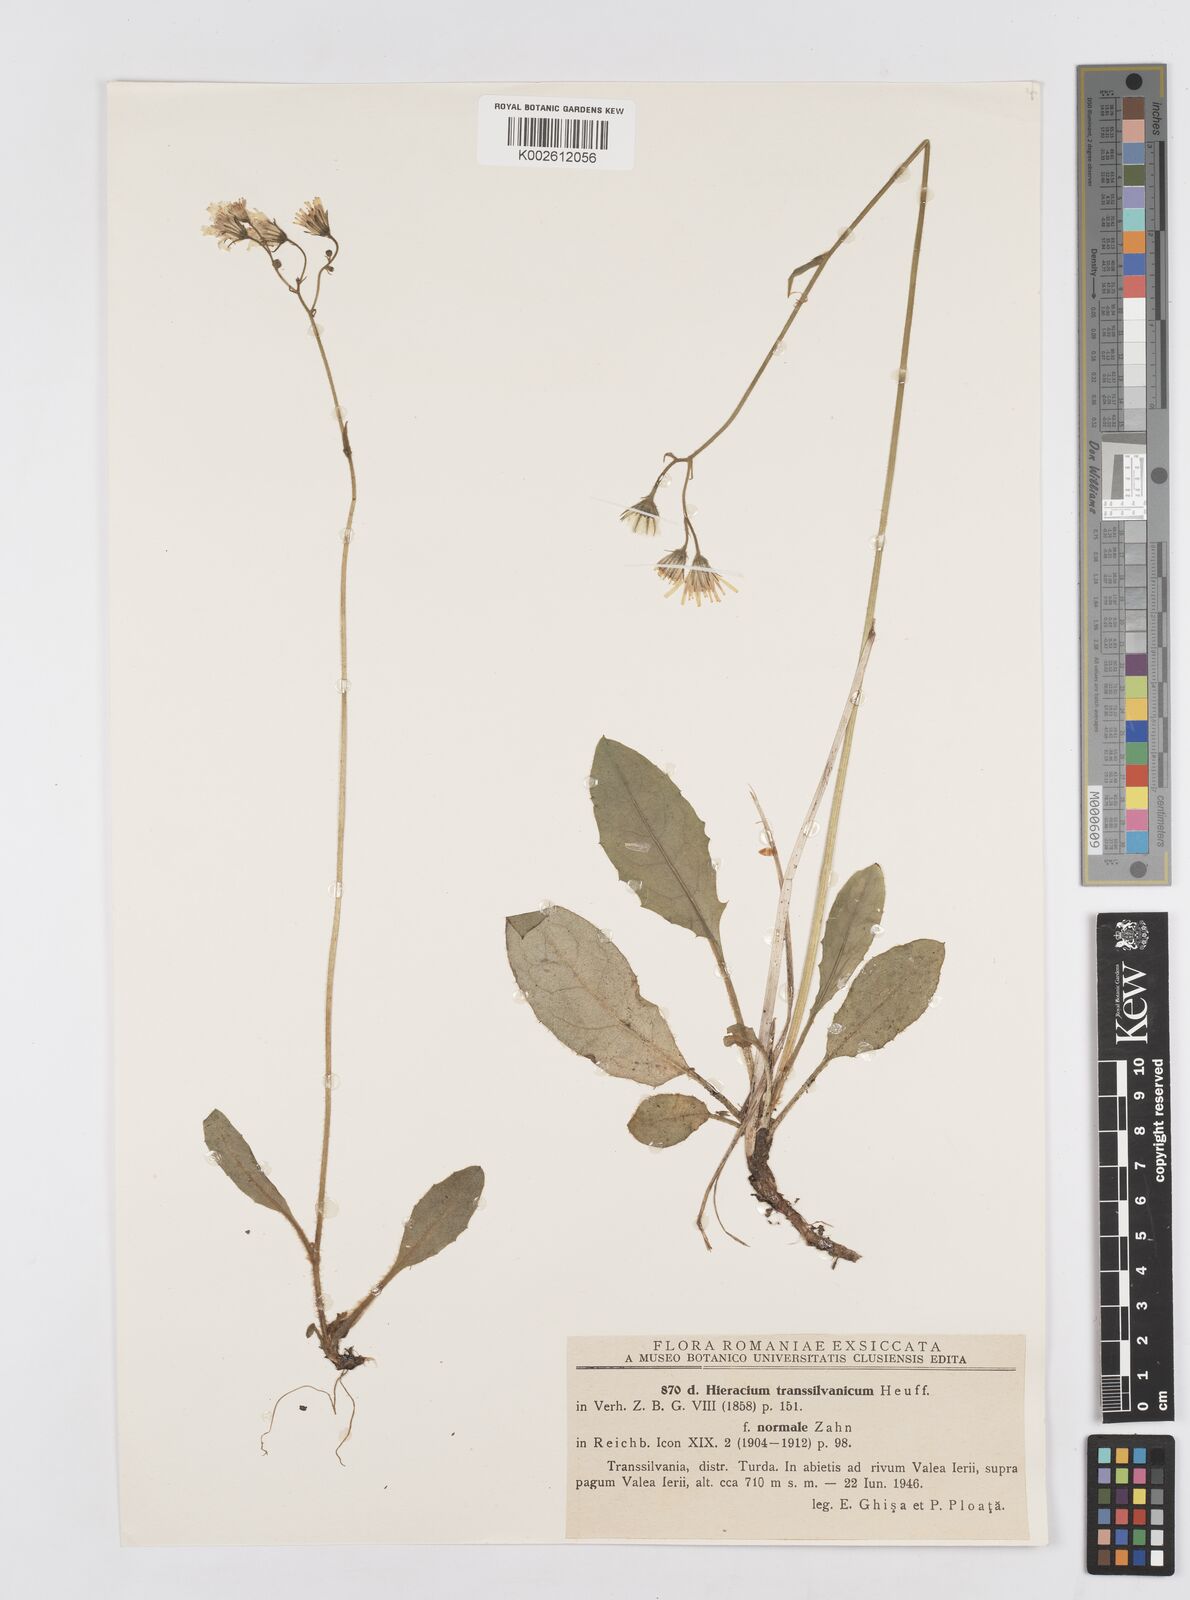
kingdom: Plantae
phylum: Tracheophyta
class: Magnoliopsida
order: Asterales
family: Asteraceae
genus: Hieracium
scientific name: Hieracium transylvanicum
